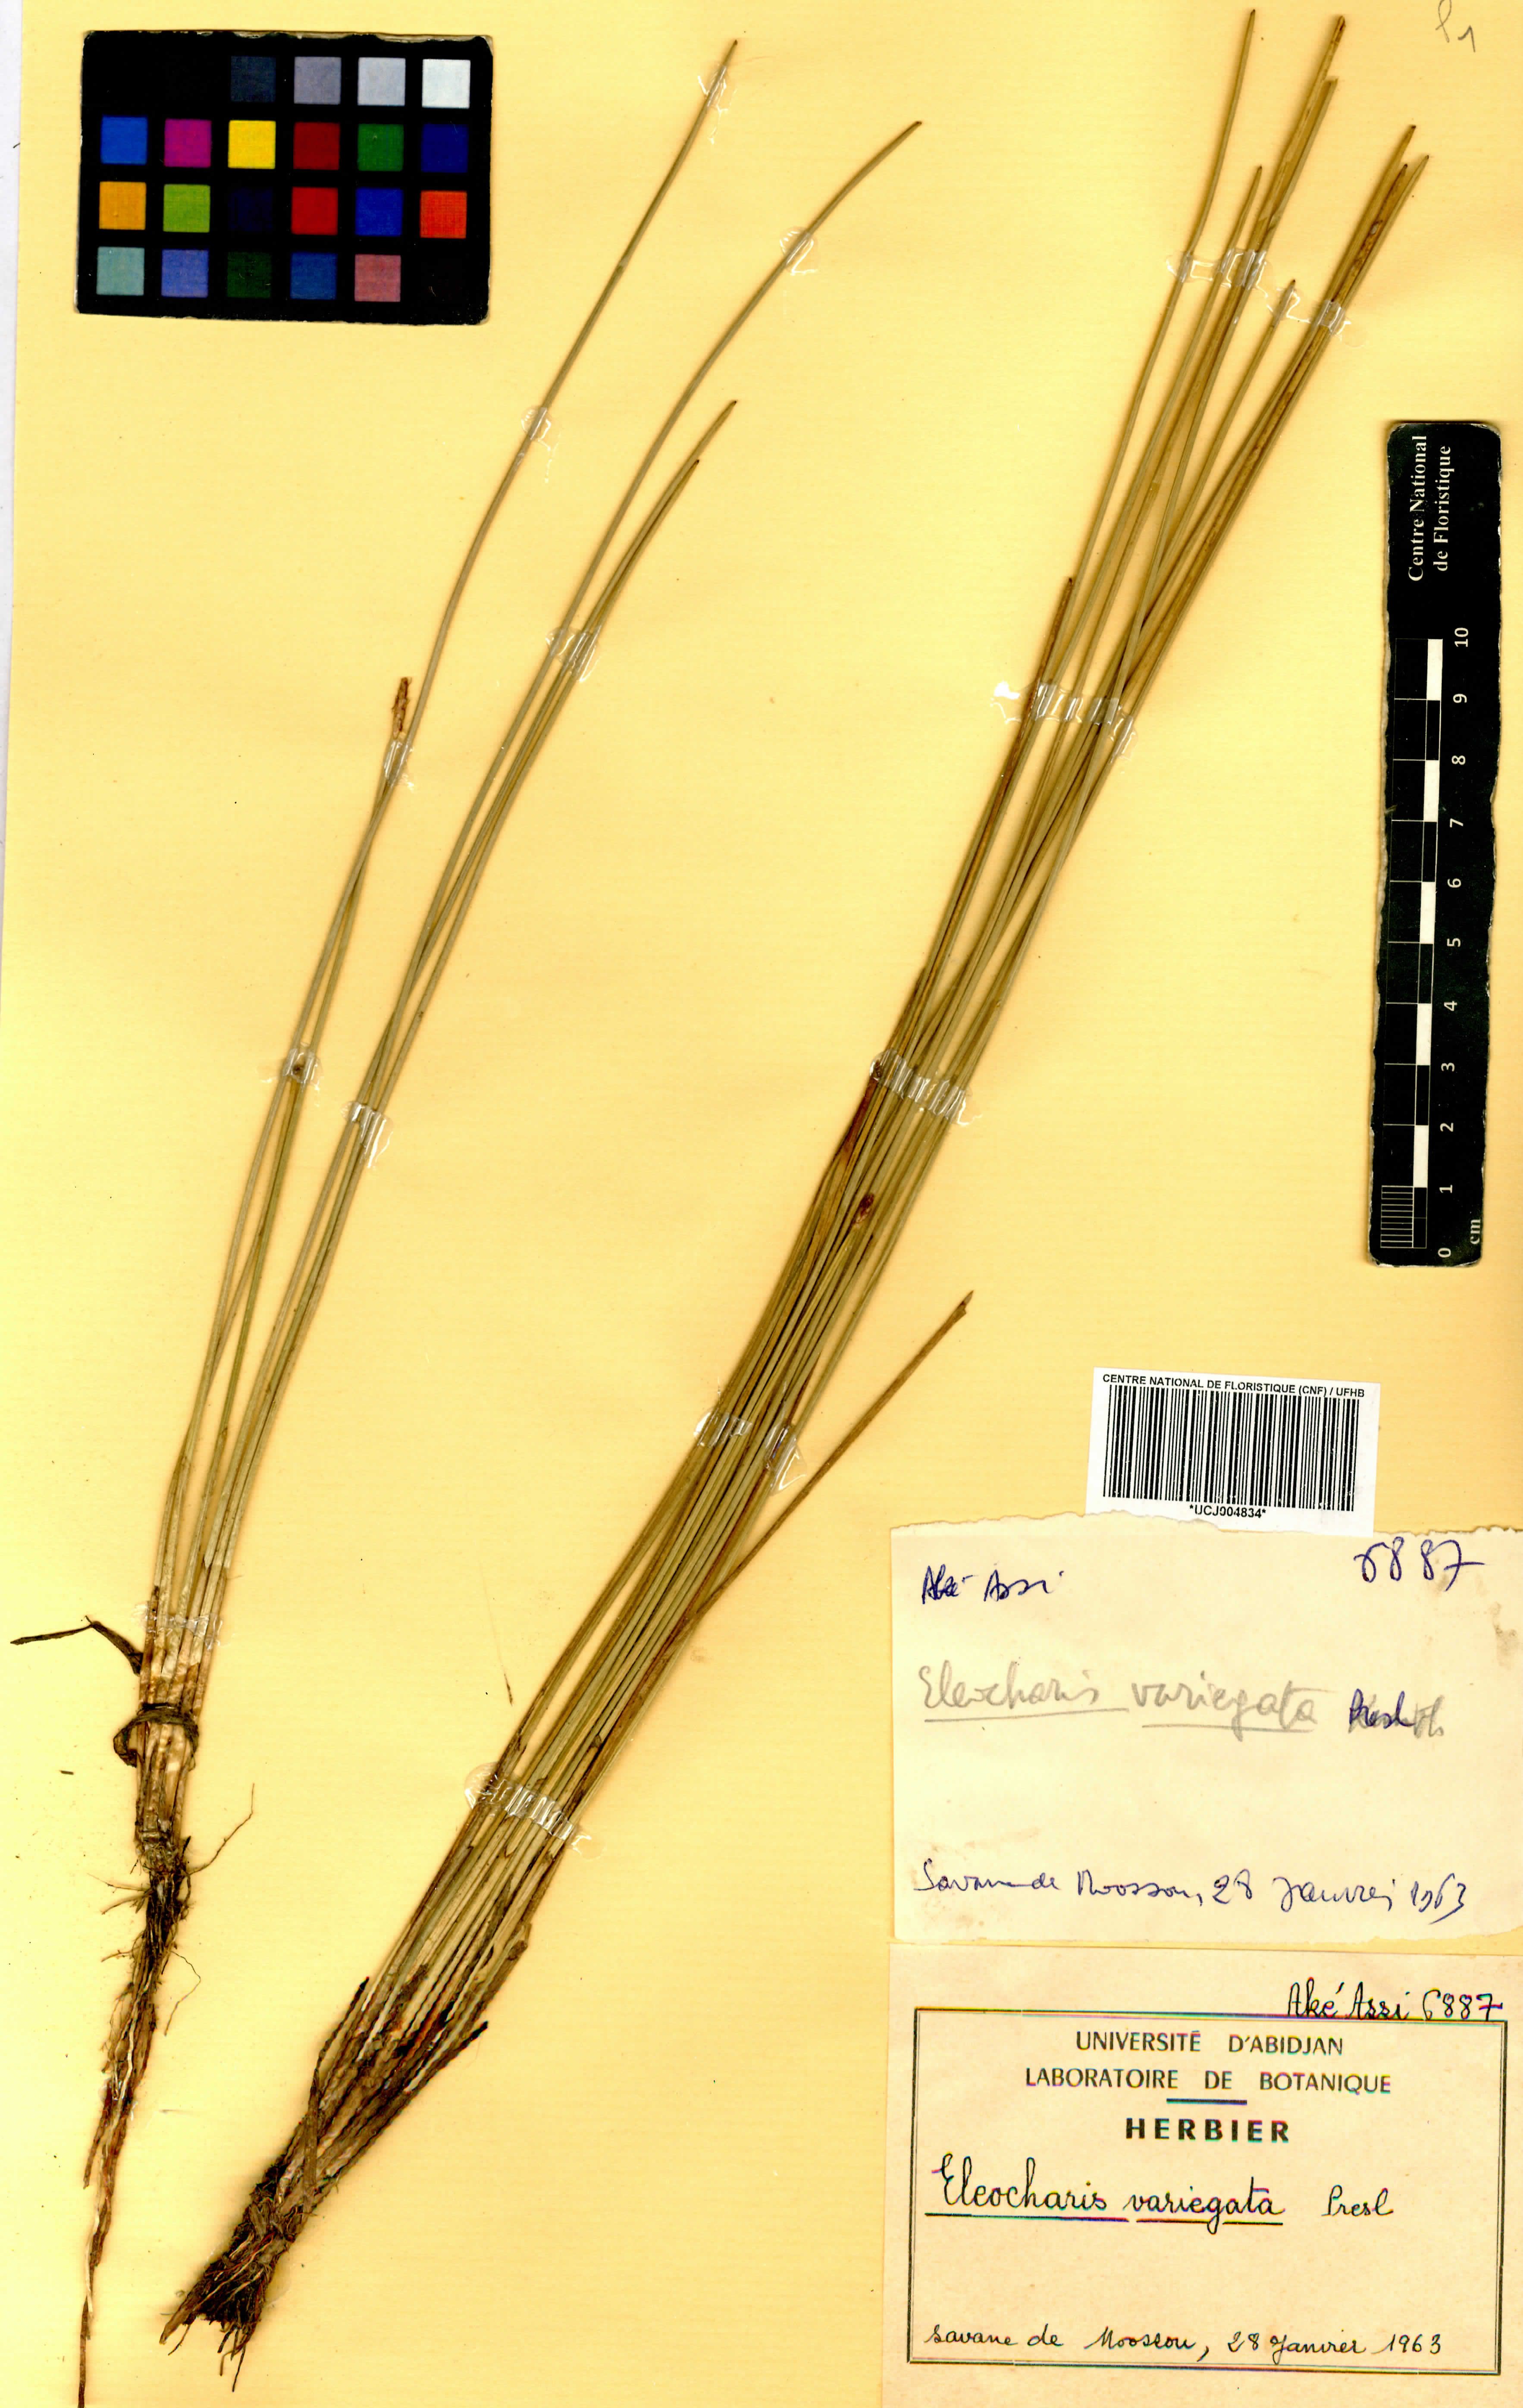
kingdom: Plantae
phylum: Tracheophyta
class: Liliopsida
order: Poales
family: Cyperaceae
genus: Eleocharis
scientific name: Eleocharis variegata
